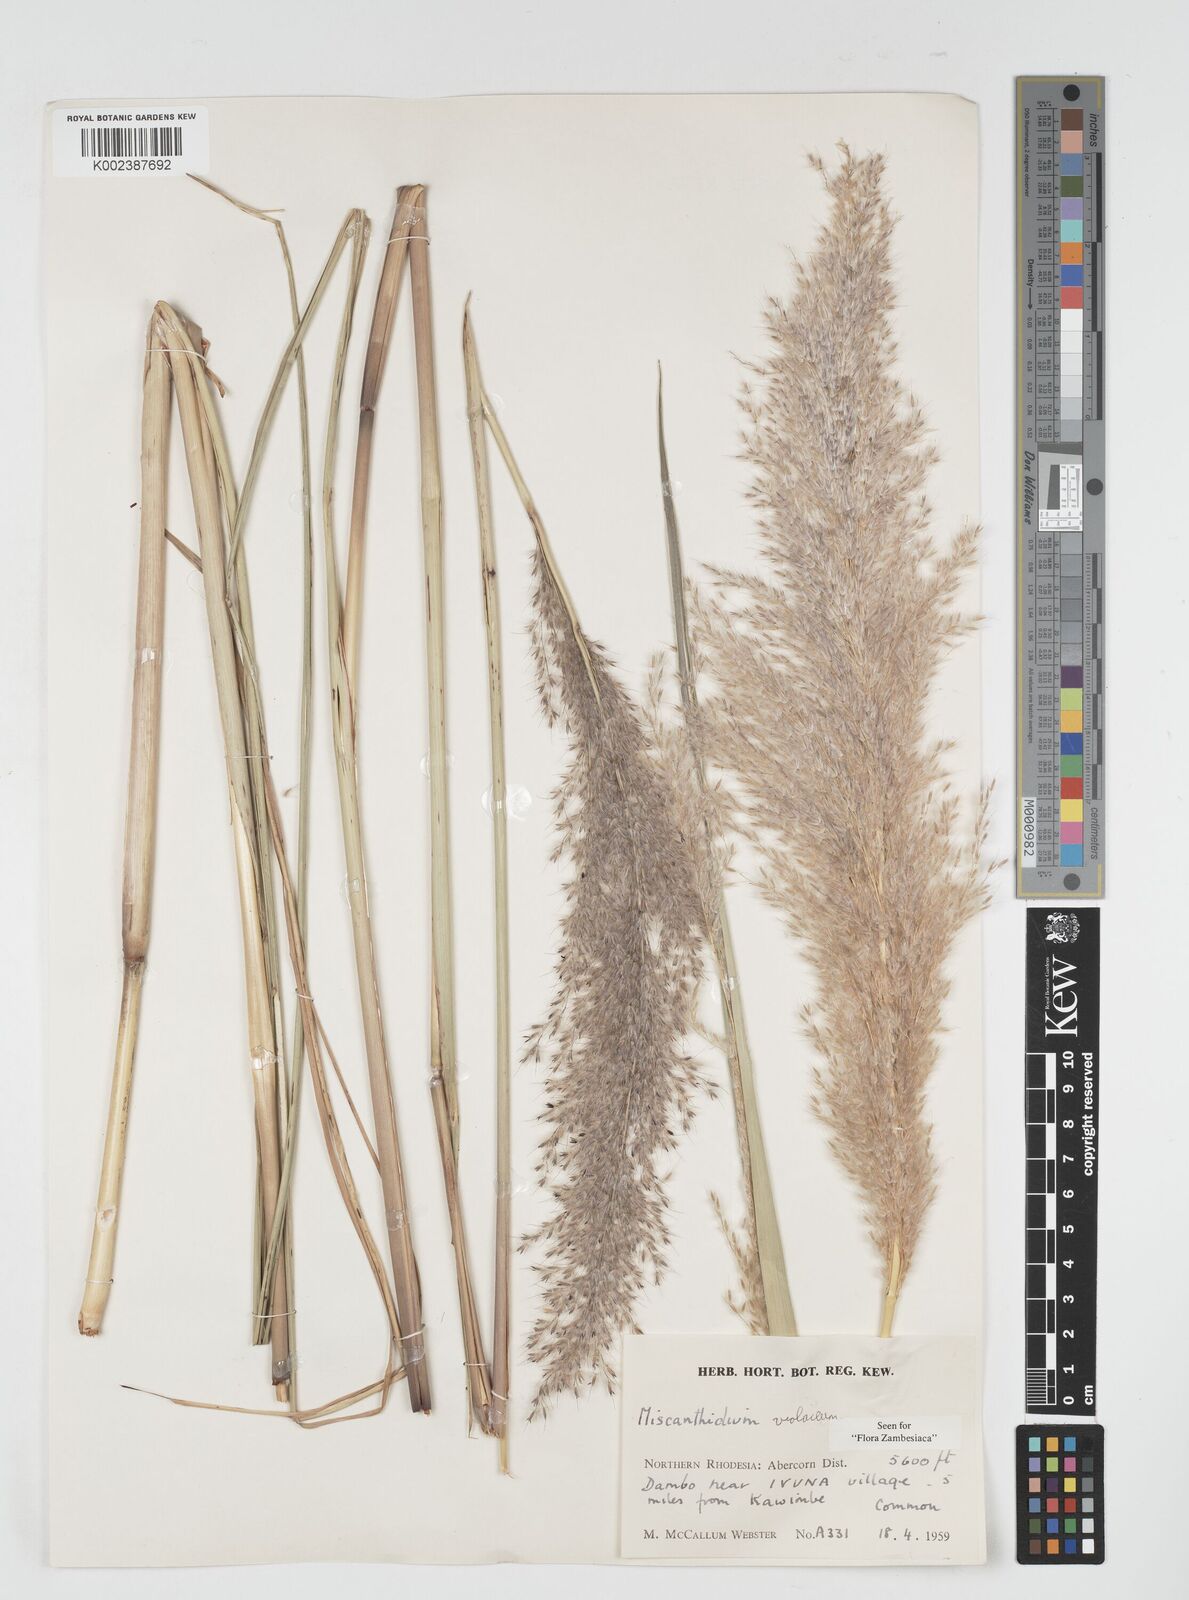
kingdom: Plantae
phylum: Tracheophyta
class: Liliopsida
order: Poales
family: Poaceae
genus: Miscanthidium
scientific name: Miscanthidium violaceum
